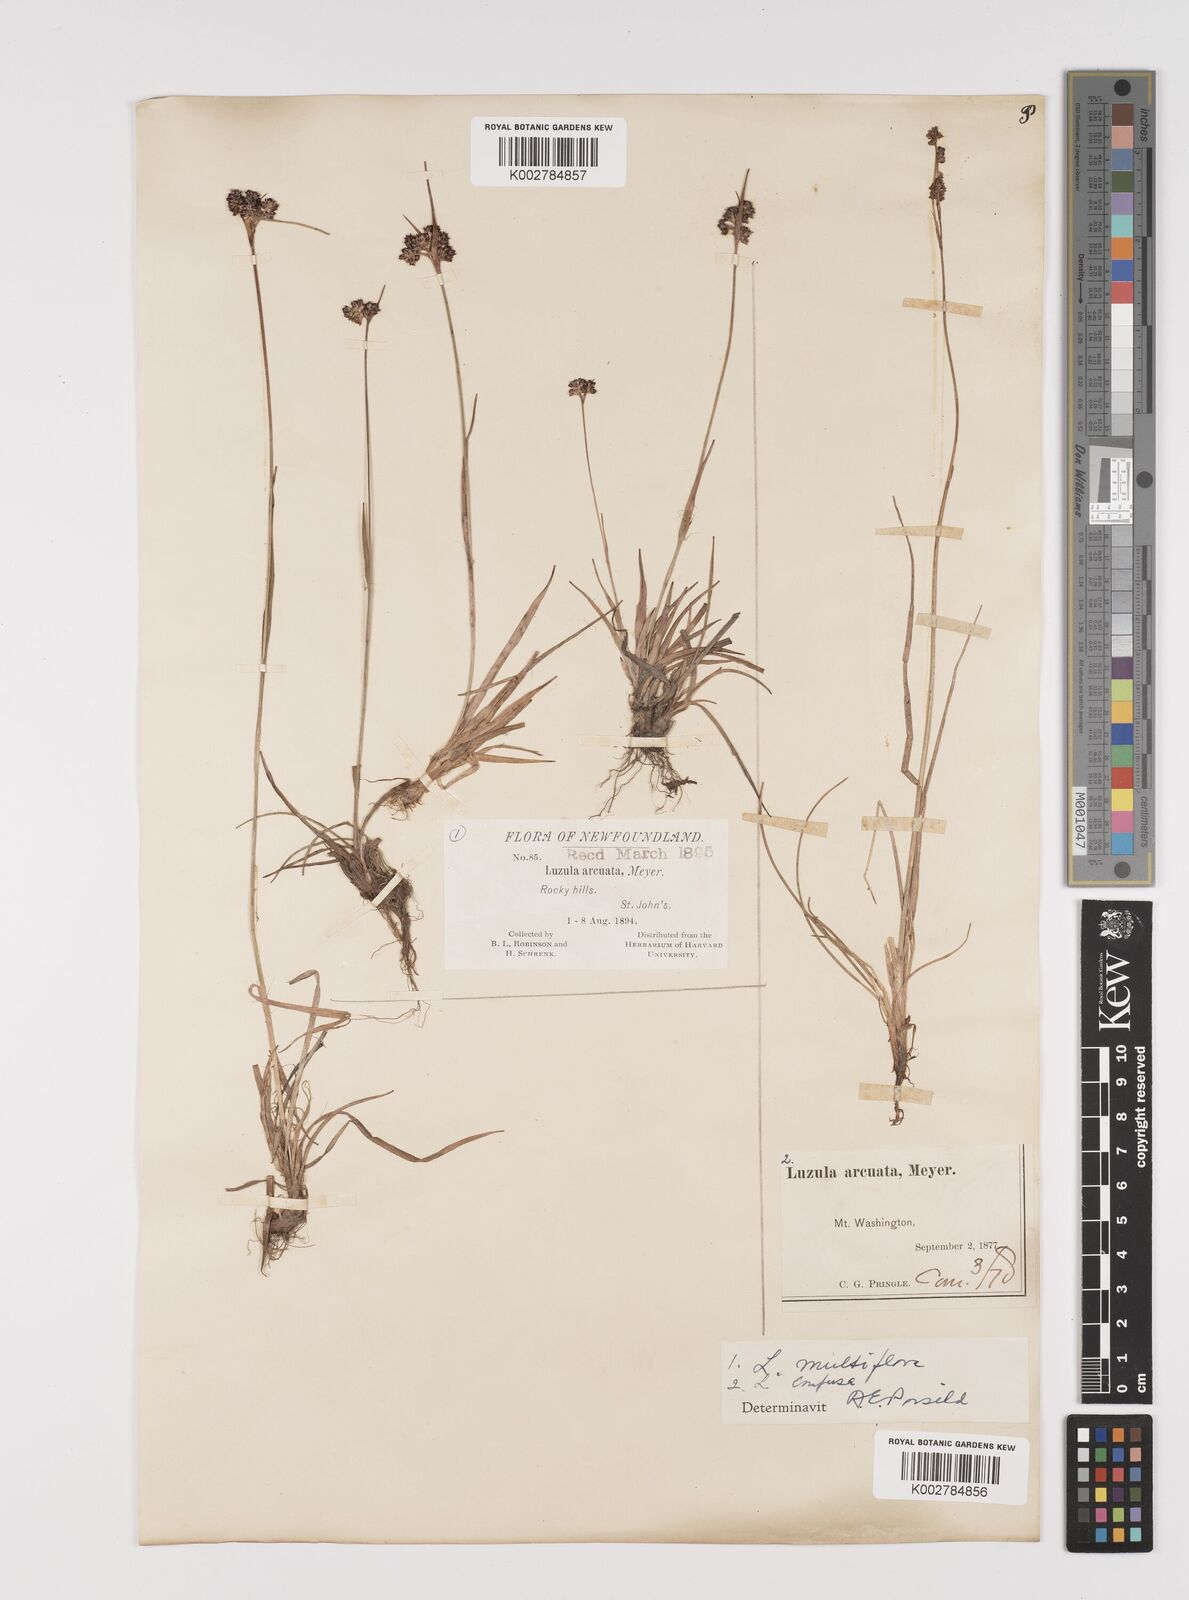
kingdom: Plantae
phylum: Tracheophyta
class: Liliopsida
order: Poales
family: Juncaceae
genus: Luzula
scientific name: Luzula confusa
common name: Northern wood rush
